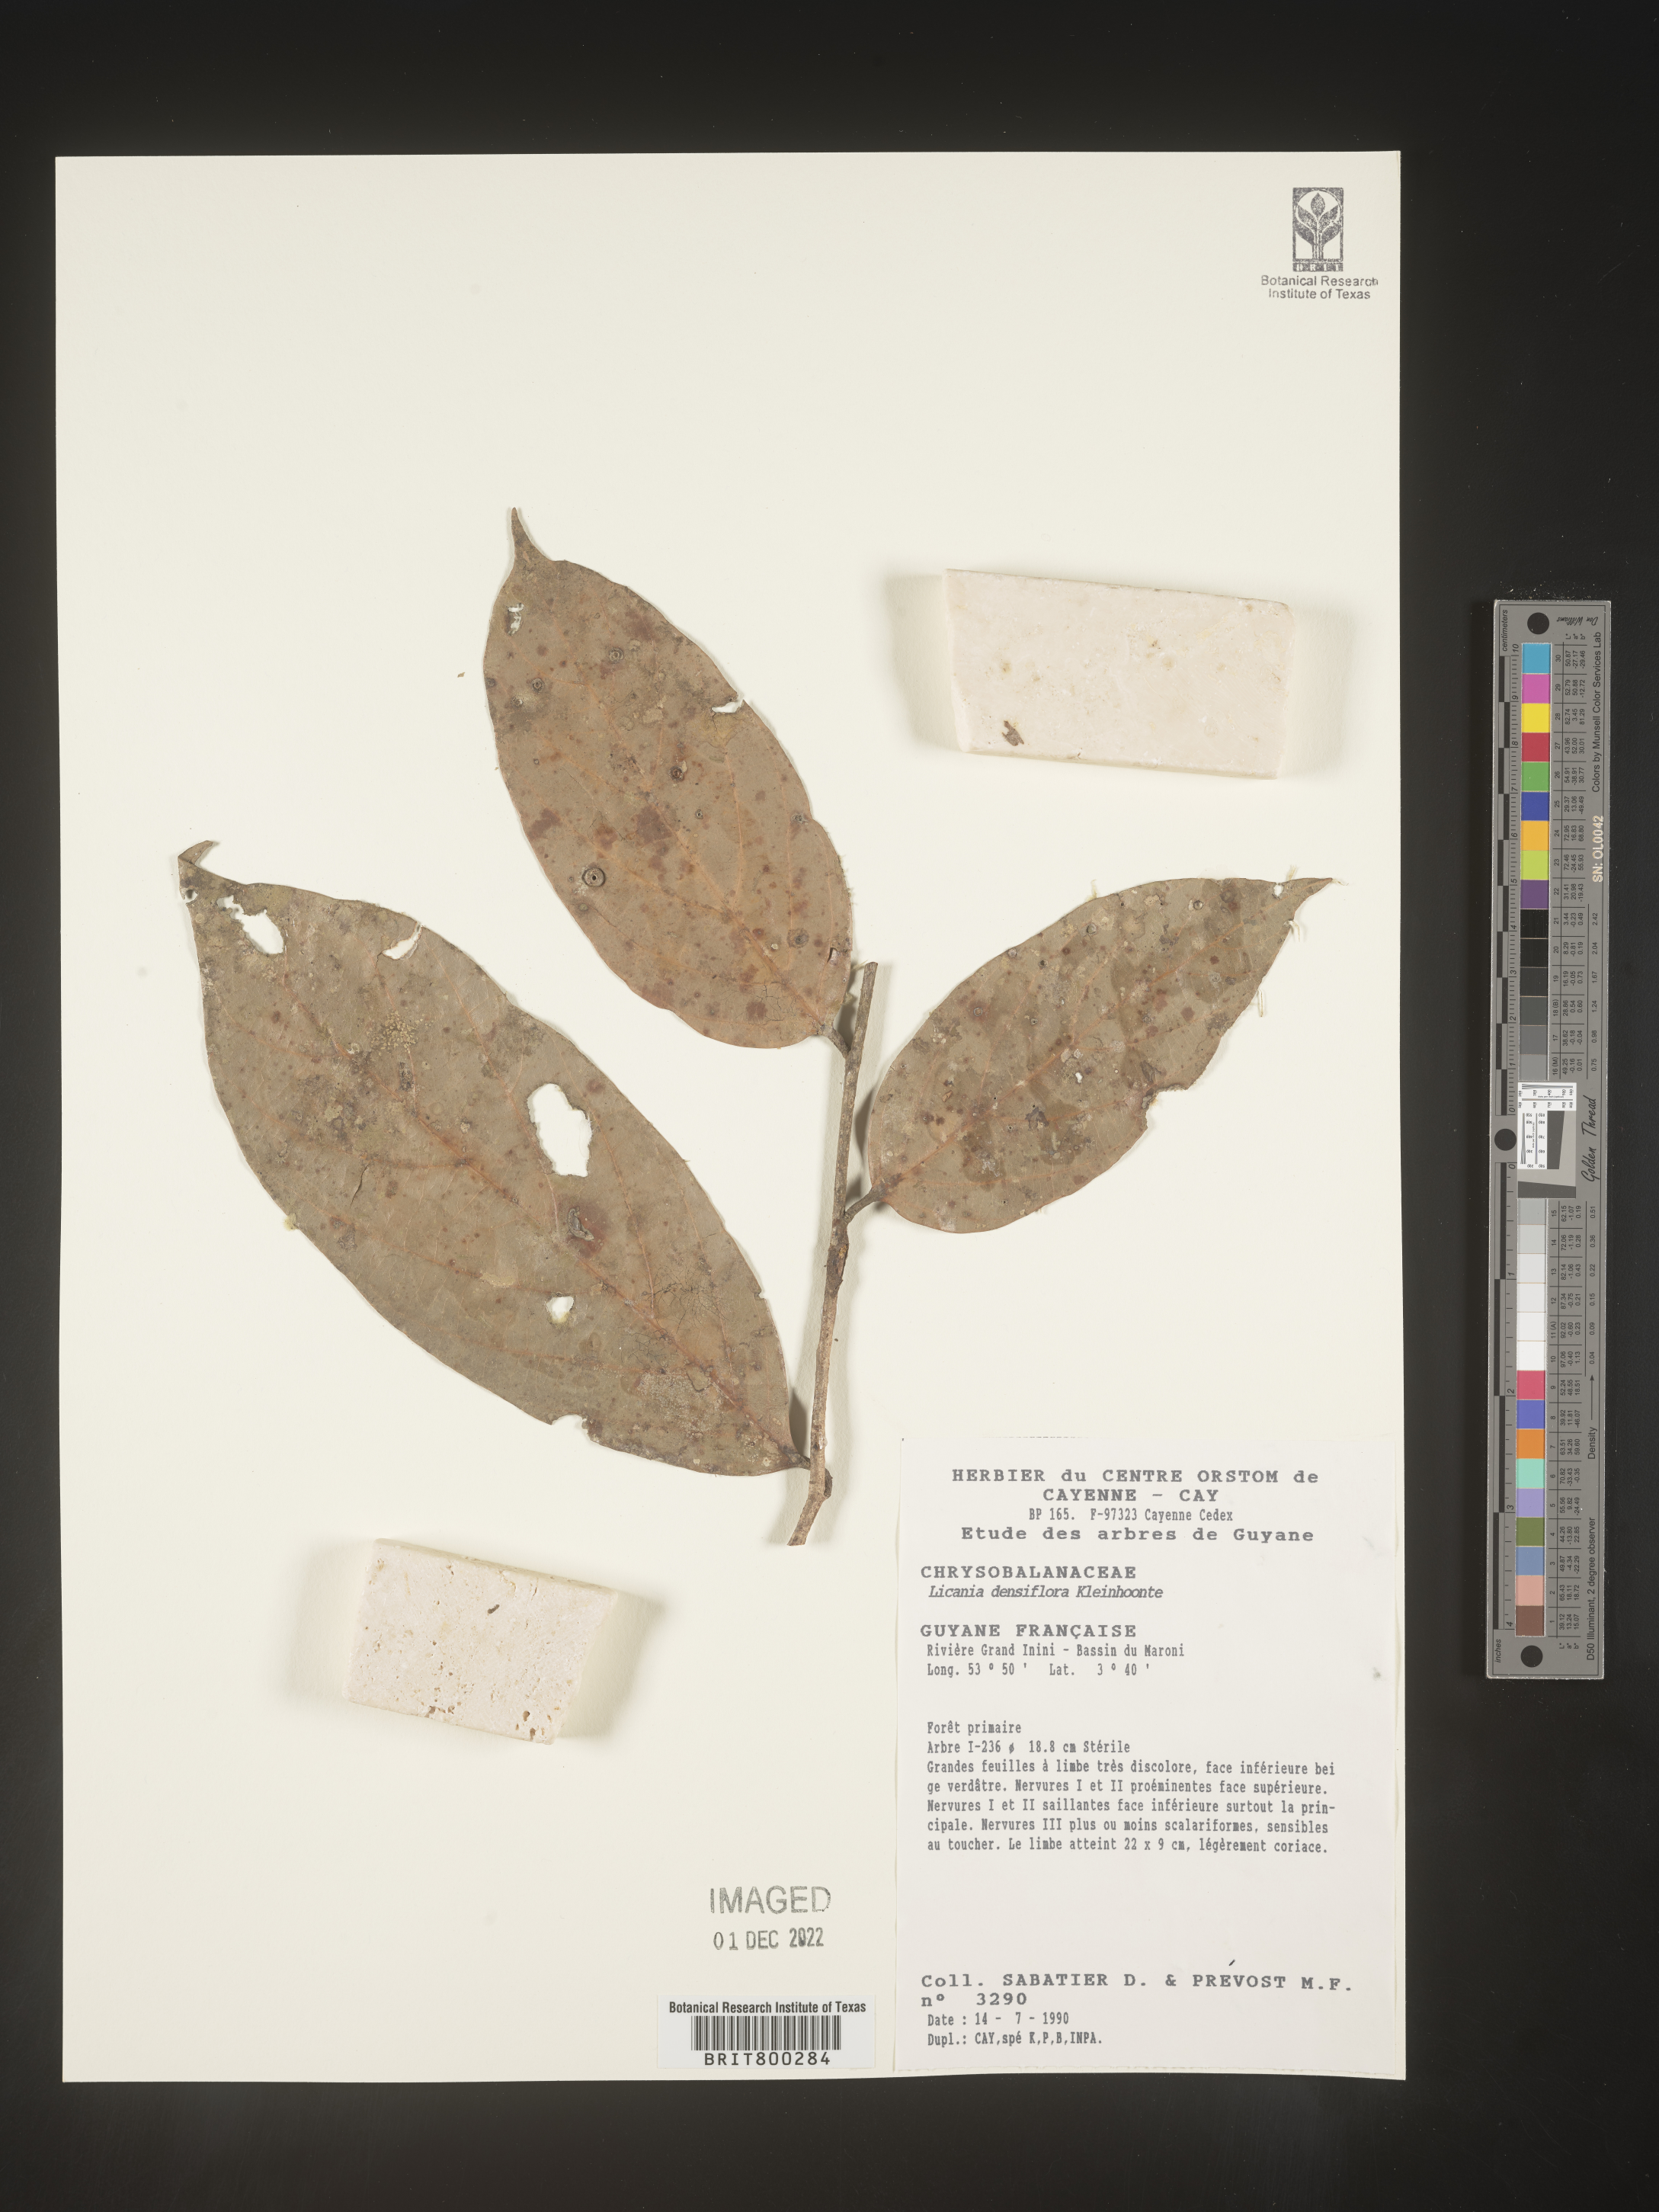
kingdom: Plantae
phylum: Tracheophyta
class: Magnoliopsida
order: Malpighiales
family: Chrysobalanaceae
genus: Geobalanus
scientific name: Geobalanus oblongifolius
